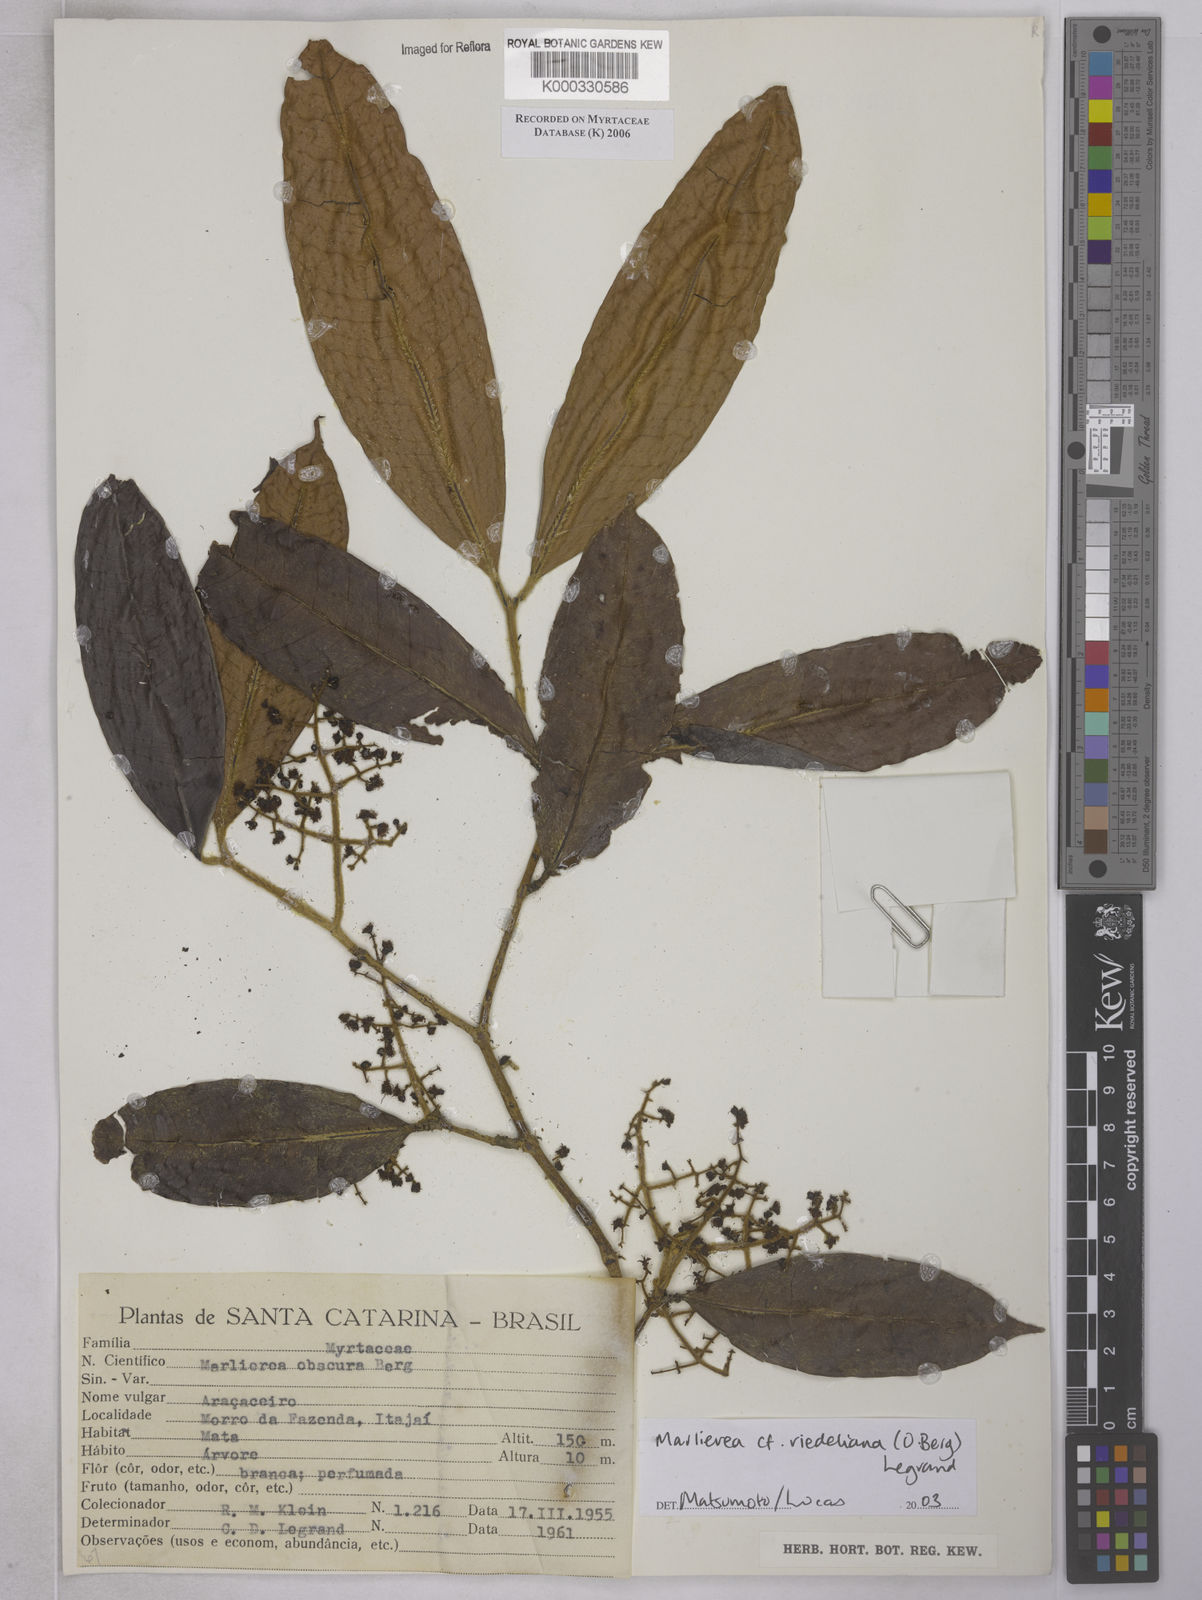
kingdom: Plantae
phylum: Tracheophyta
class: Magnoliopsida
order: Myrtales
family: Myrtaceae
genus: Myrcia
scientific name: Myrcia neoriedeliana
